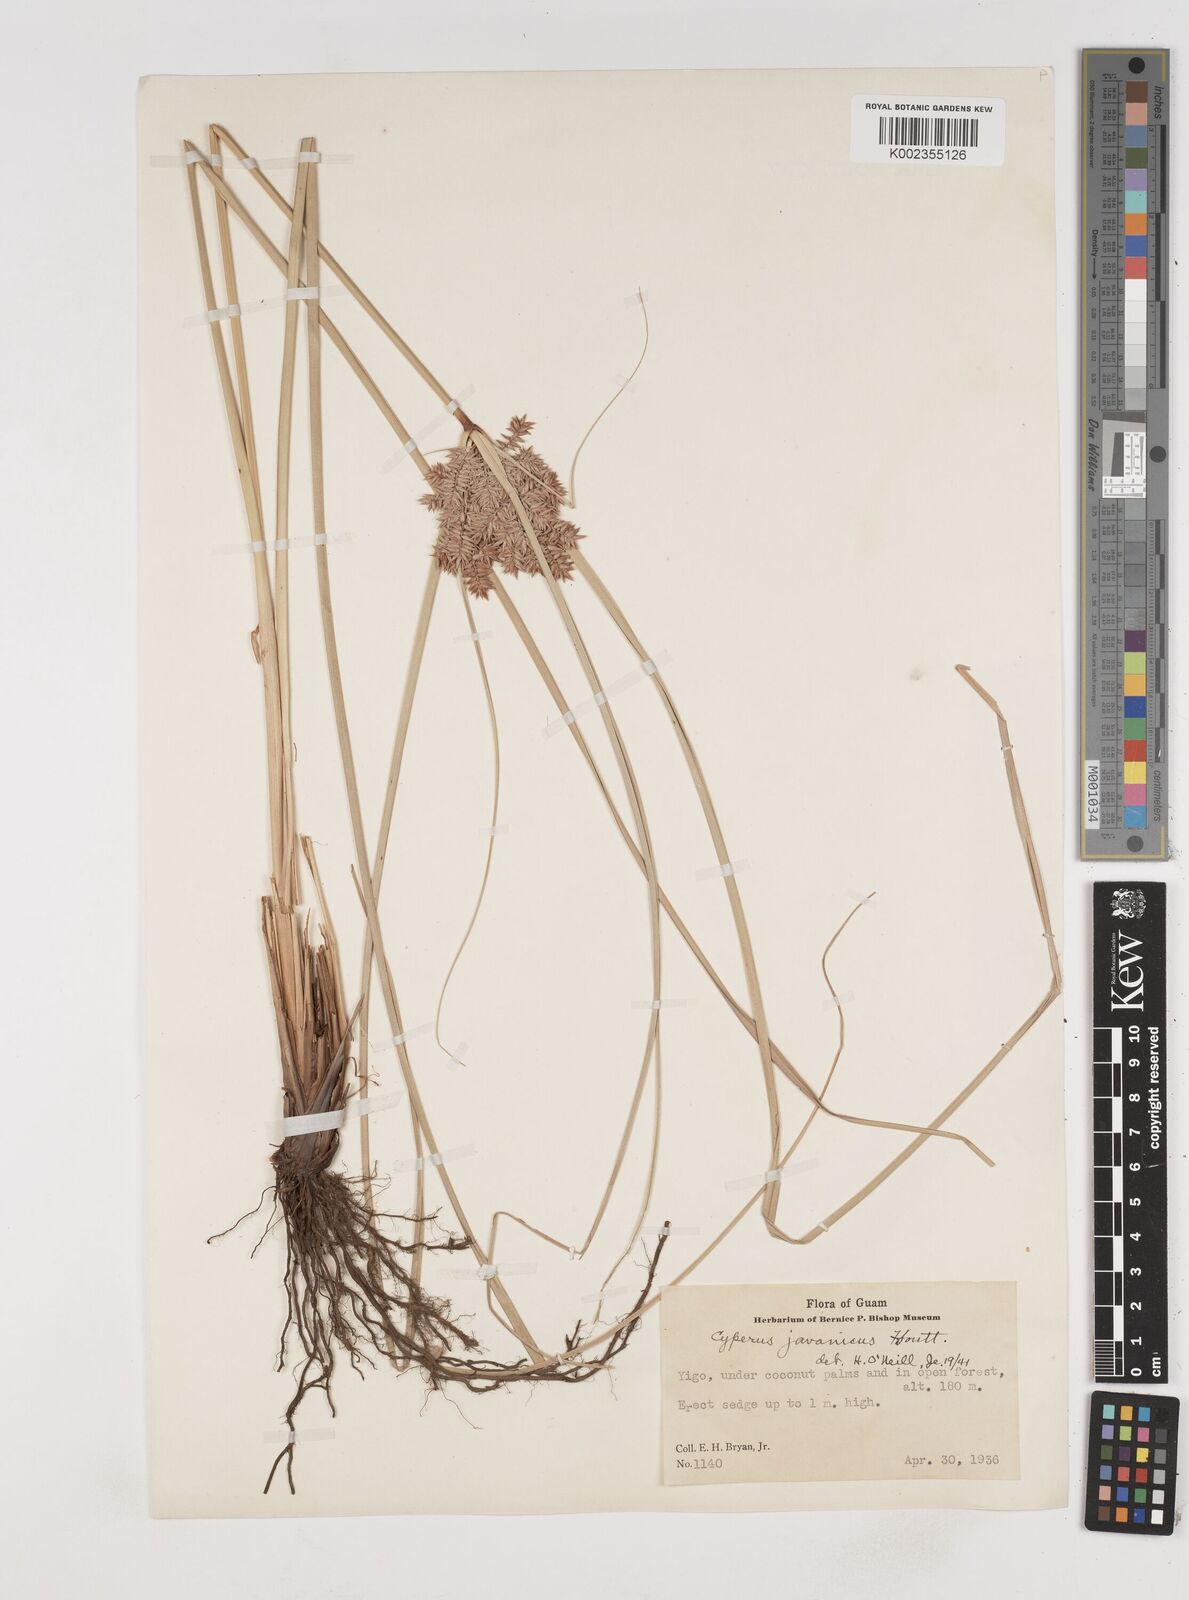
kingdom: Plantae
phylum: Tracheophyta
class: Liliopsida
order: Poales
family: Cyperaceae
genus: Cyperus
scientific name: Cyperus javanicus
